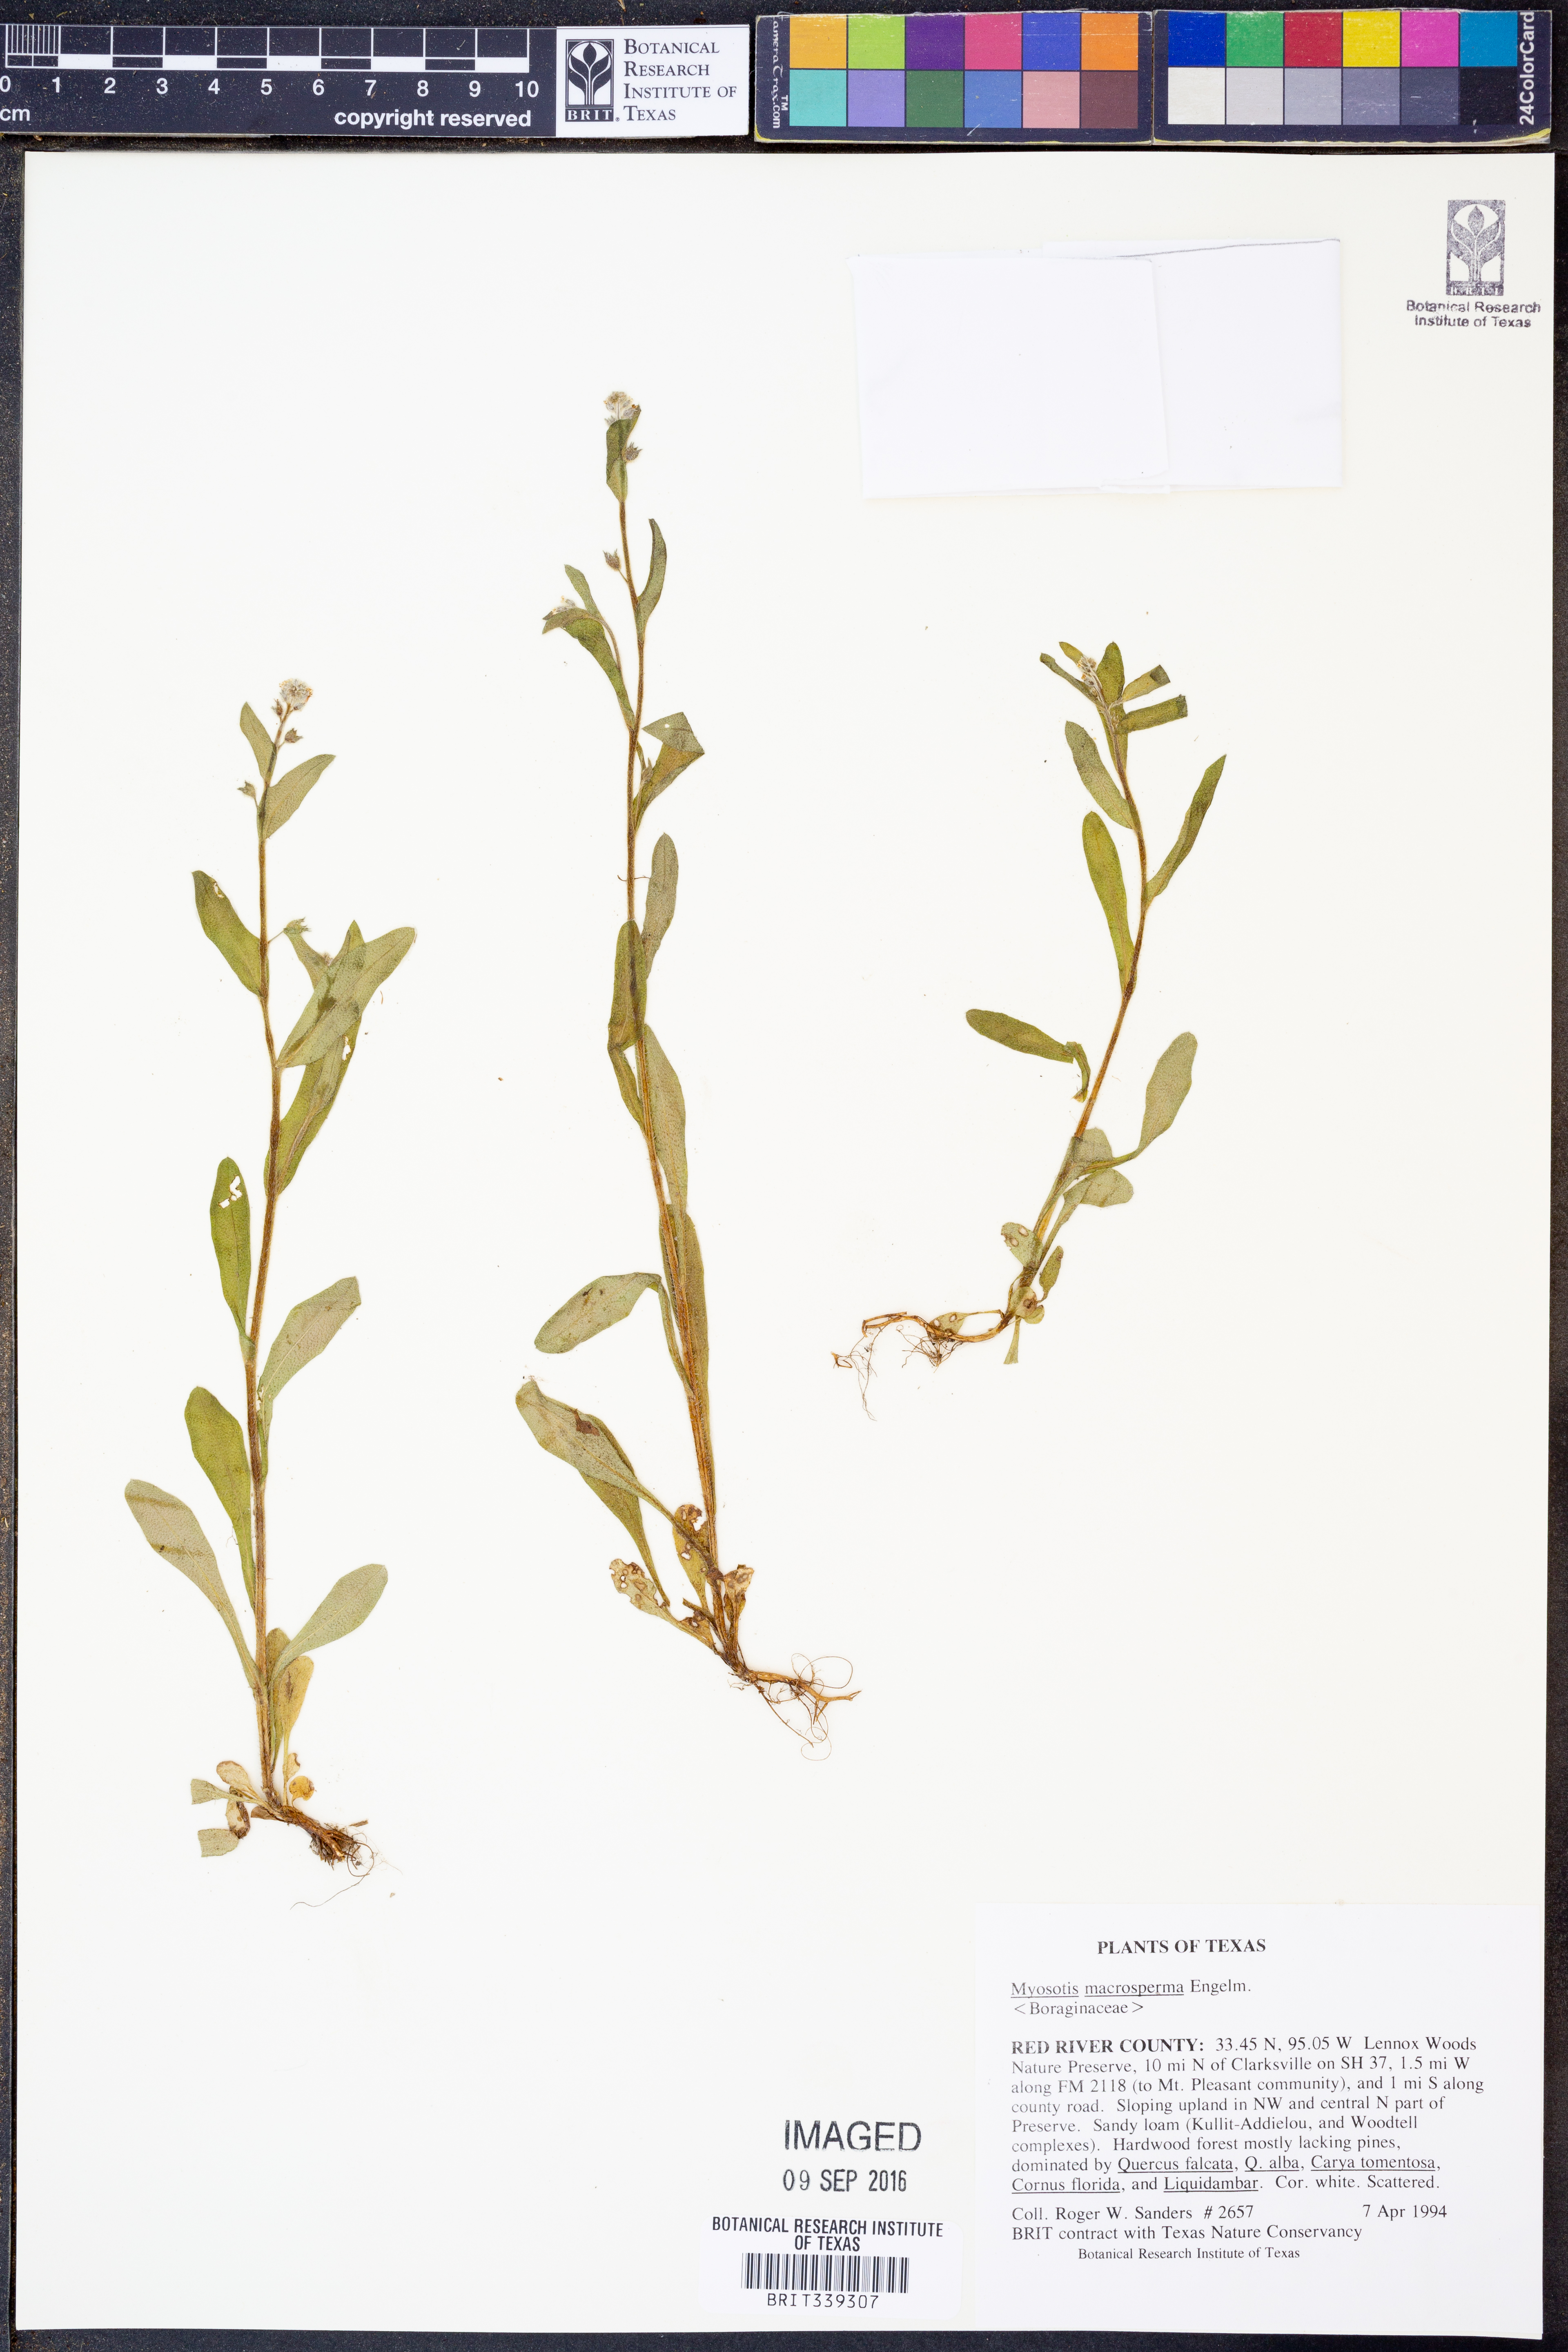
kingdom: Plantae
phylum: Tracheophyta
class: Magnoliopsida
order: Boraginales
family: Boraginaceae
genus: Myosotis
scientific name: Myosotis macrosperma
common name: Large-seed forget-me-not
